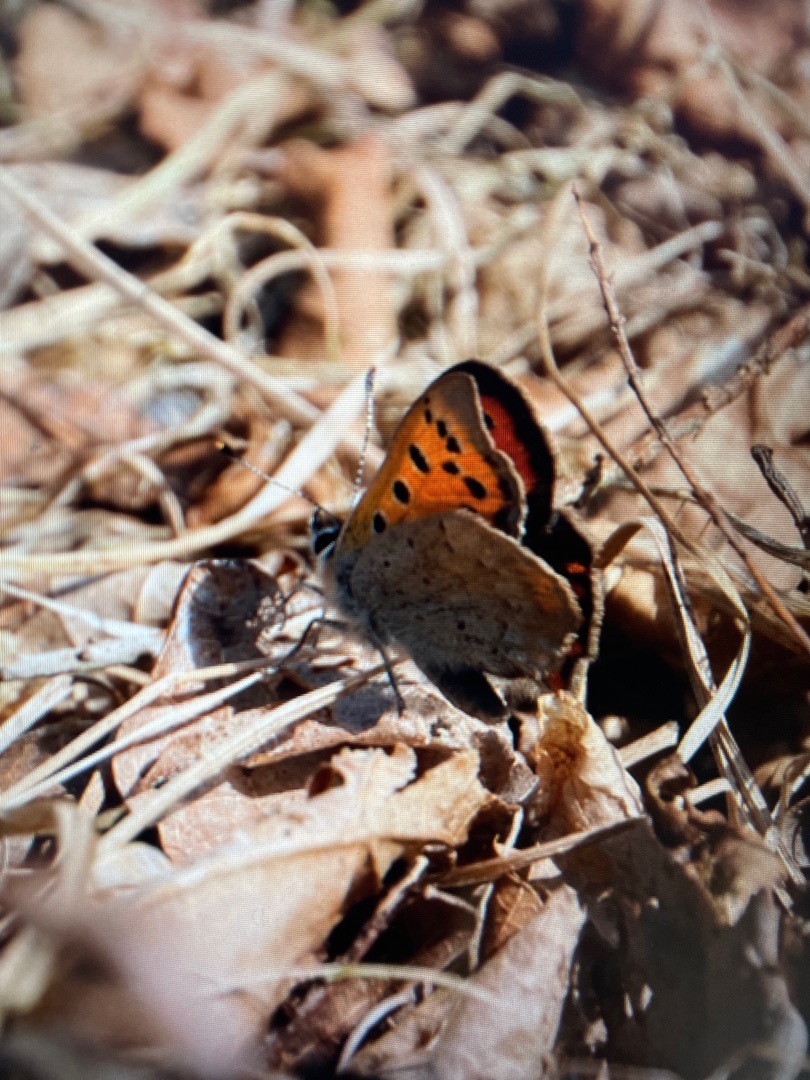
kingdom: Animalia
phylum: Arthropoda
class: Insecta
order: Lepidoptera
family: Lycaenidae
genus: Lycaena
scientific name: Lycaena phlaeas
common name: Lille ildfugl
